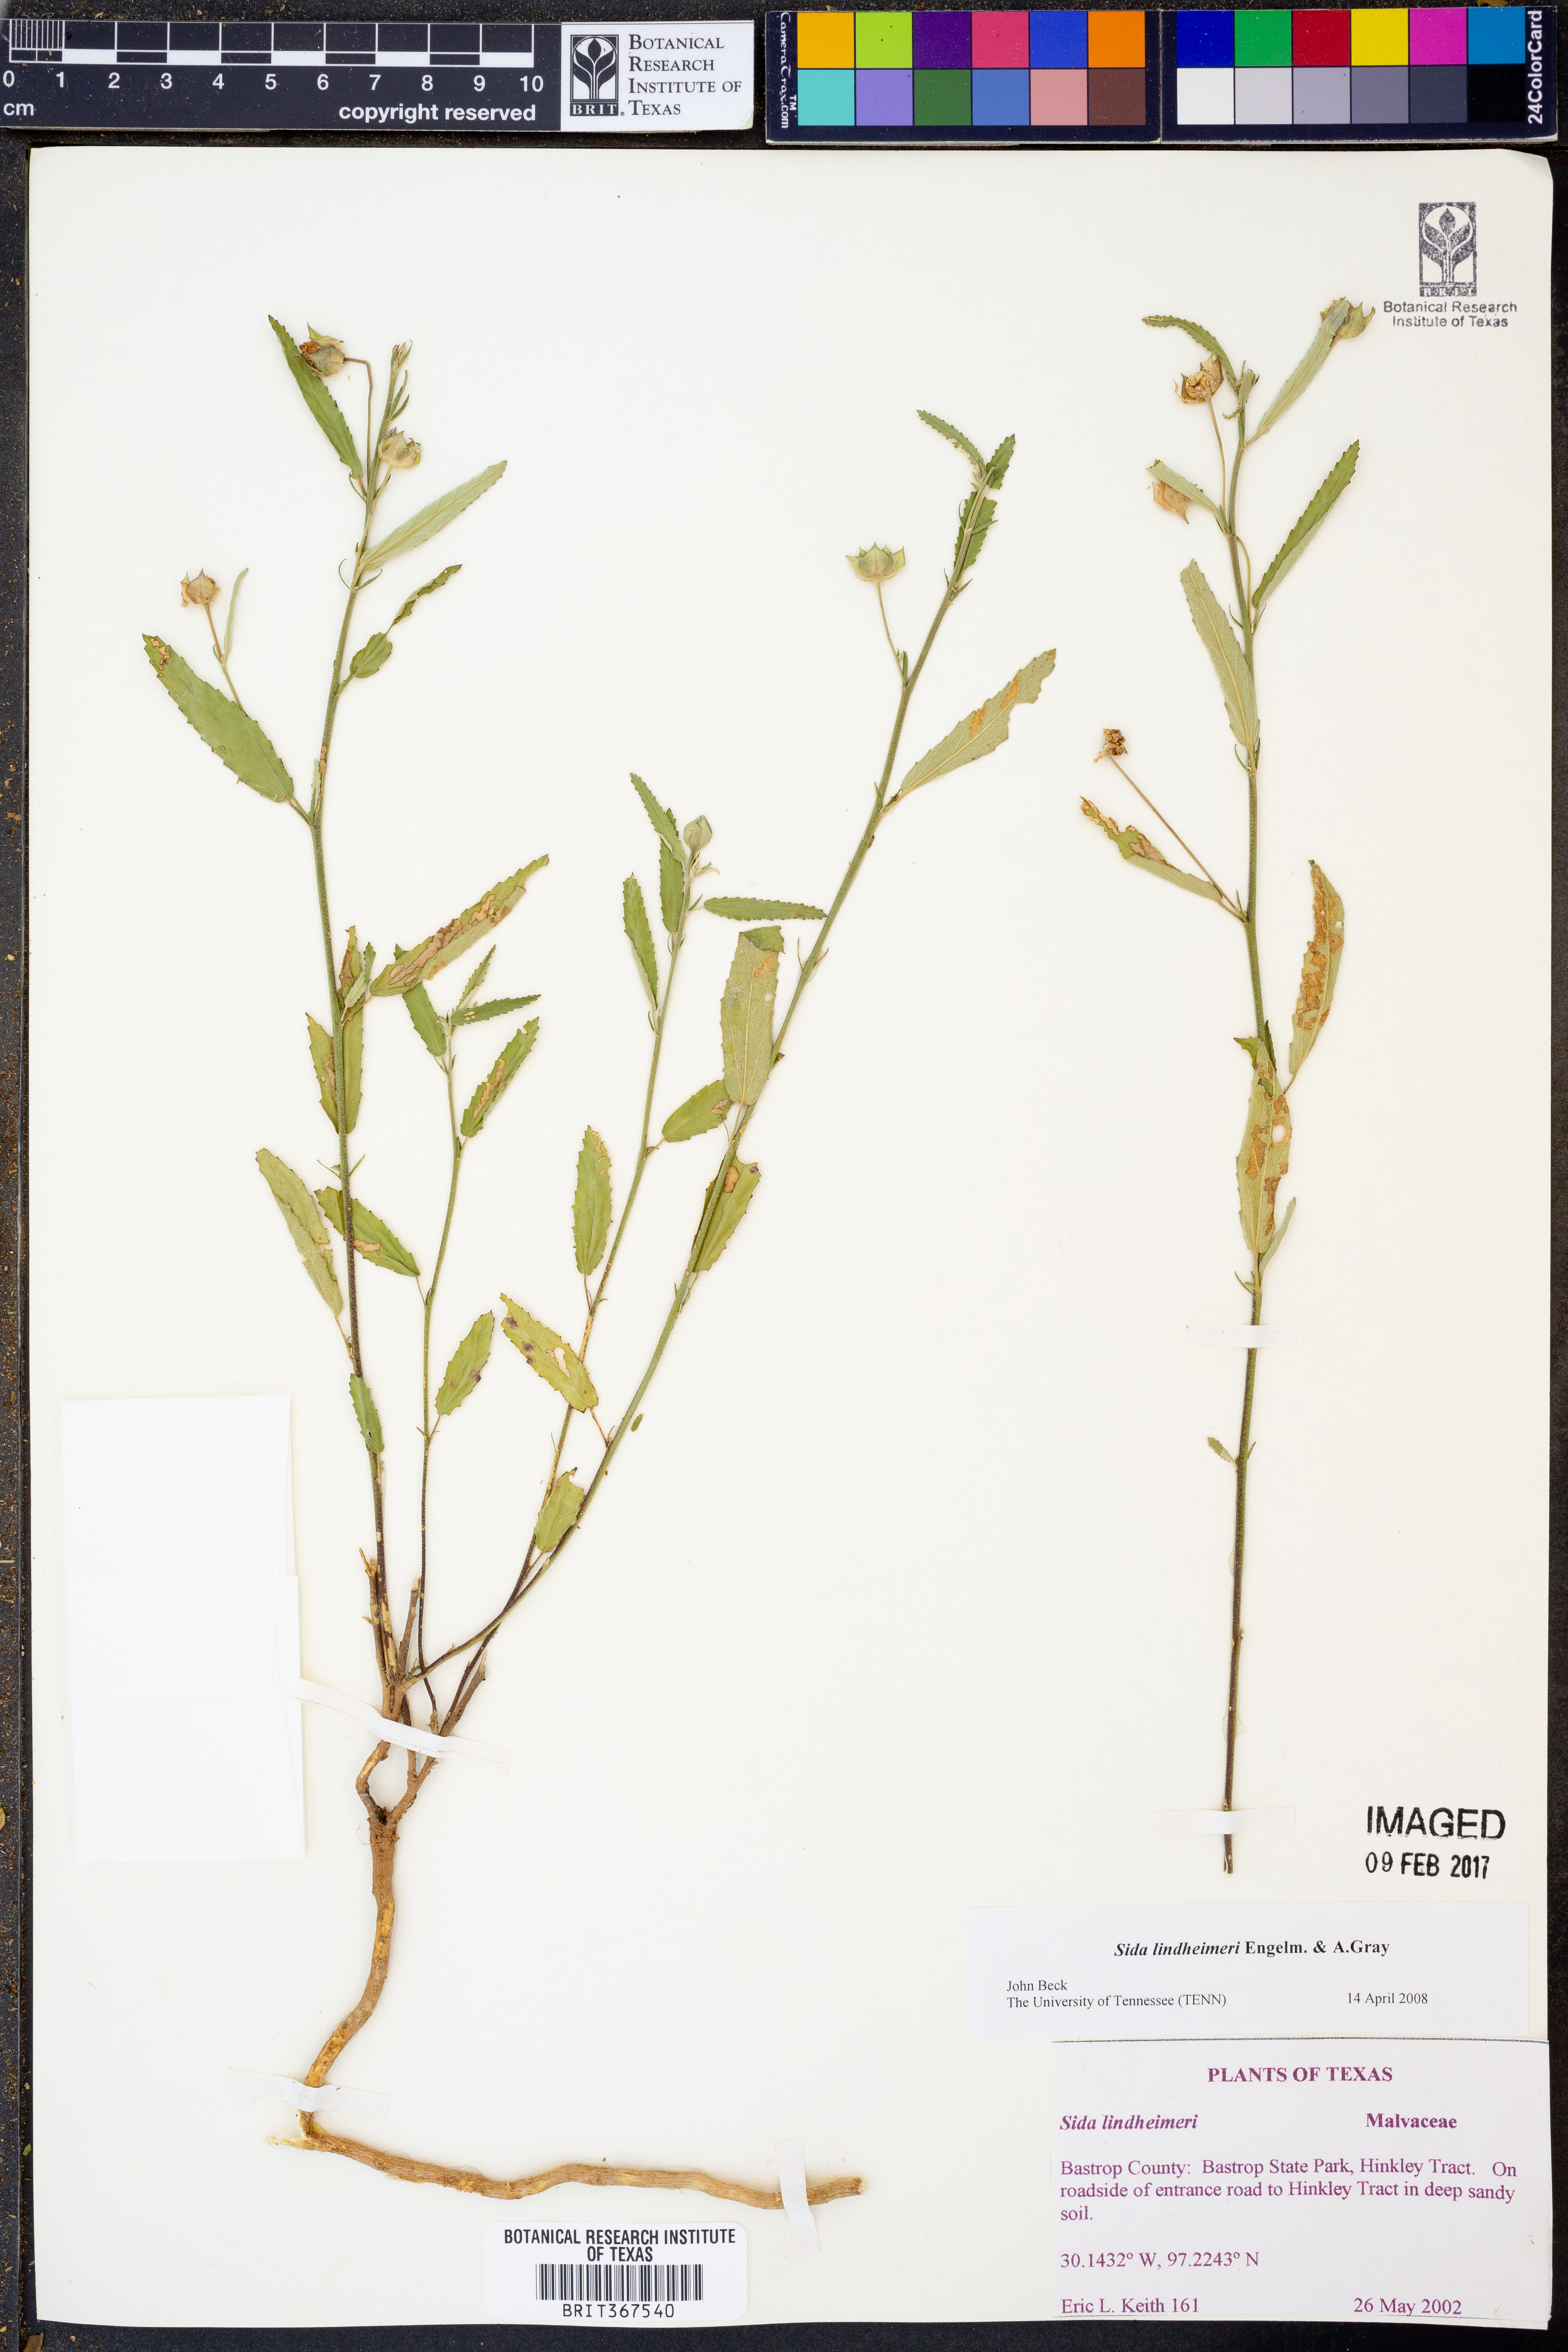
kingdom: Plantae
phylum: Tracheophyta
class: Magnoliopsida
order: Malvales
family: Malvaceae
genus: Sida
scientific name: Sida lindheimeri
